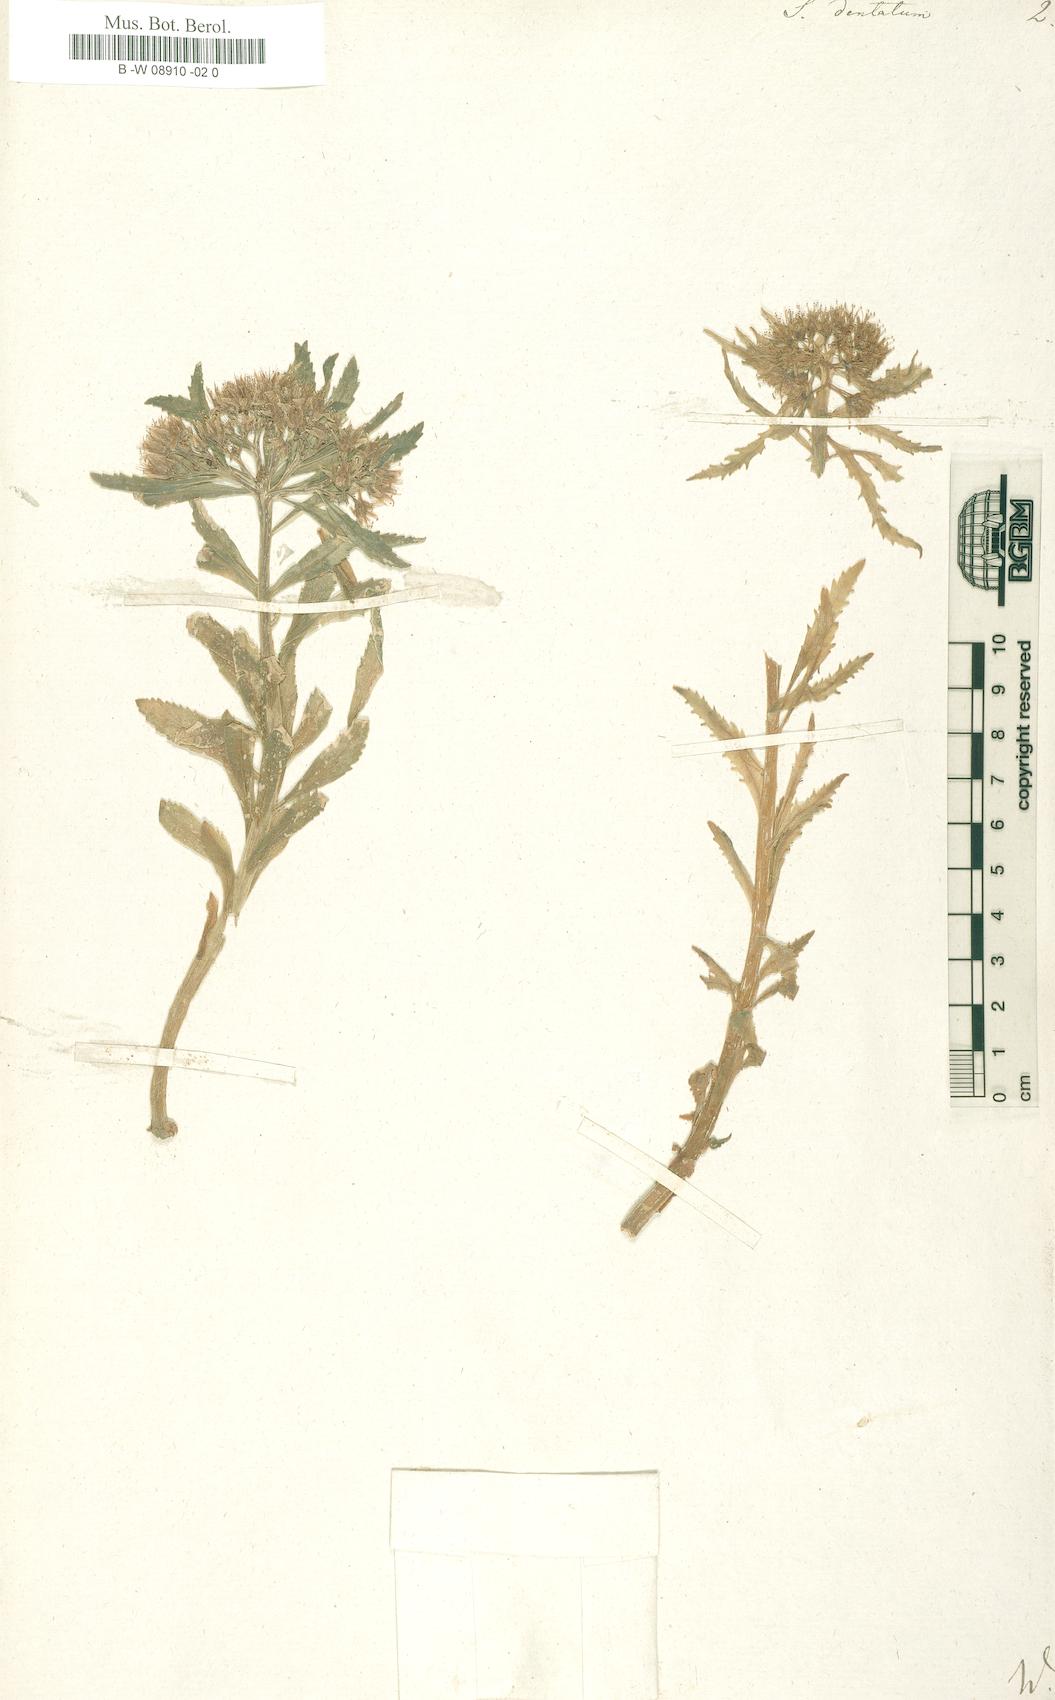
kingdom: Plantae
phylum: Tracheophyta
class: Magnoliopsida
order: Saxifragales
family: Crassulaceae
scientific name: Crassulaceae
